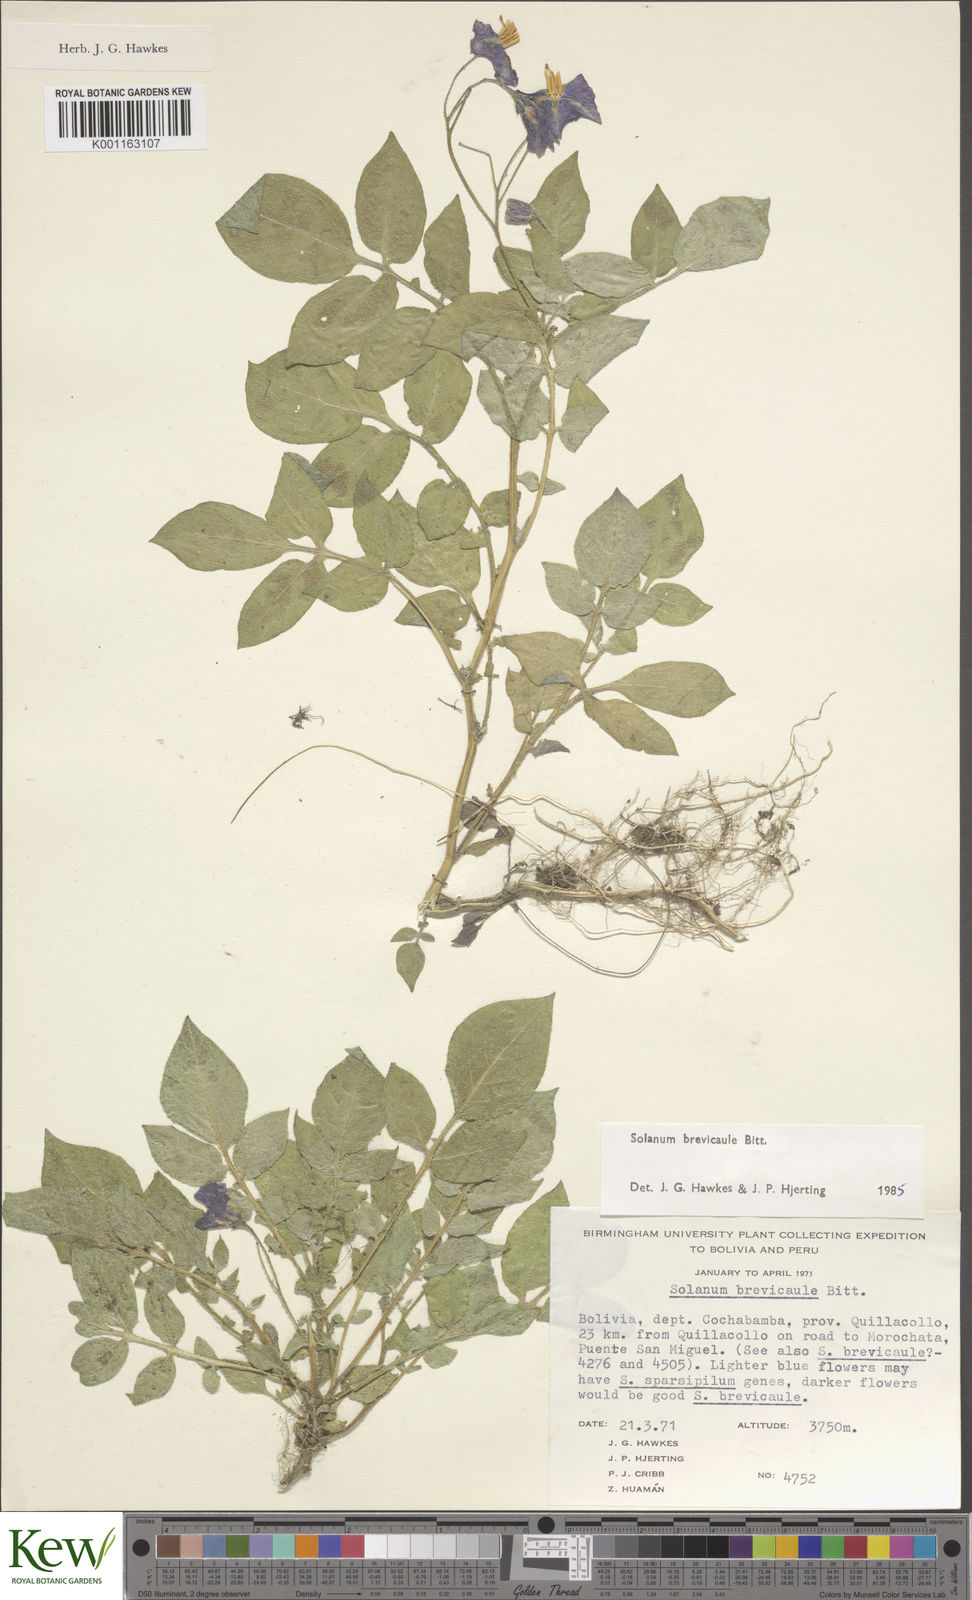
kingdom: Plantae
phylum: Tracheophyta
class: Magnoliopsida
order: Solanales
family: Solanaceae
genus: Solanum
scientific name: Solanum brevicaule
